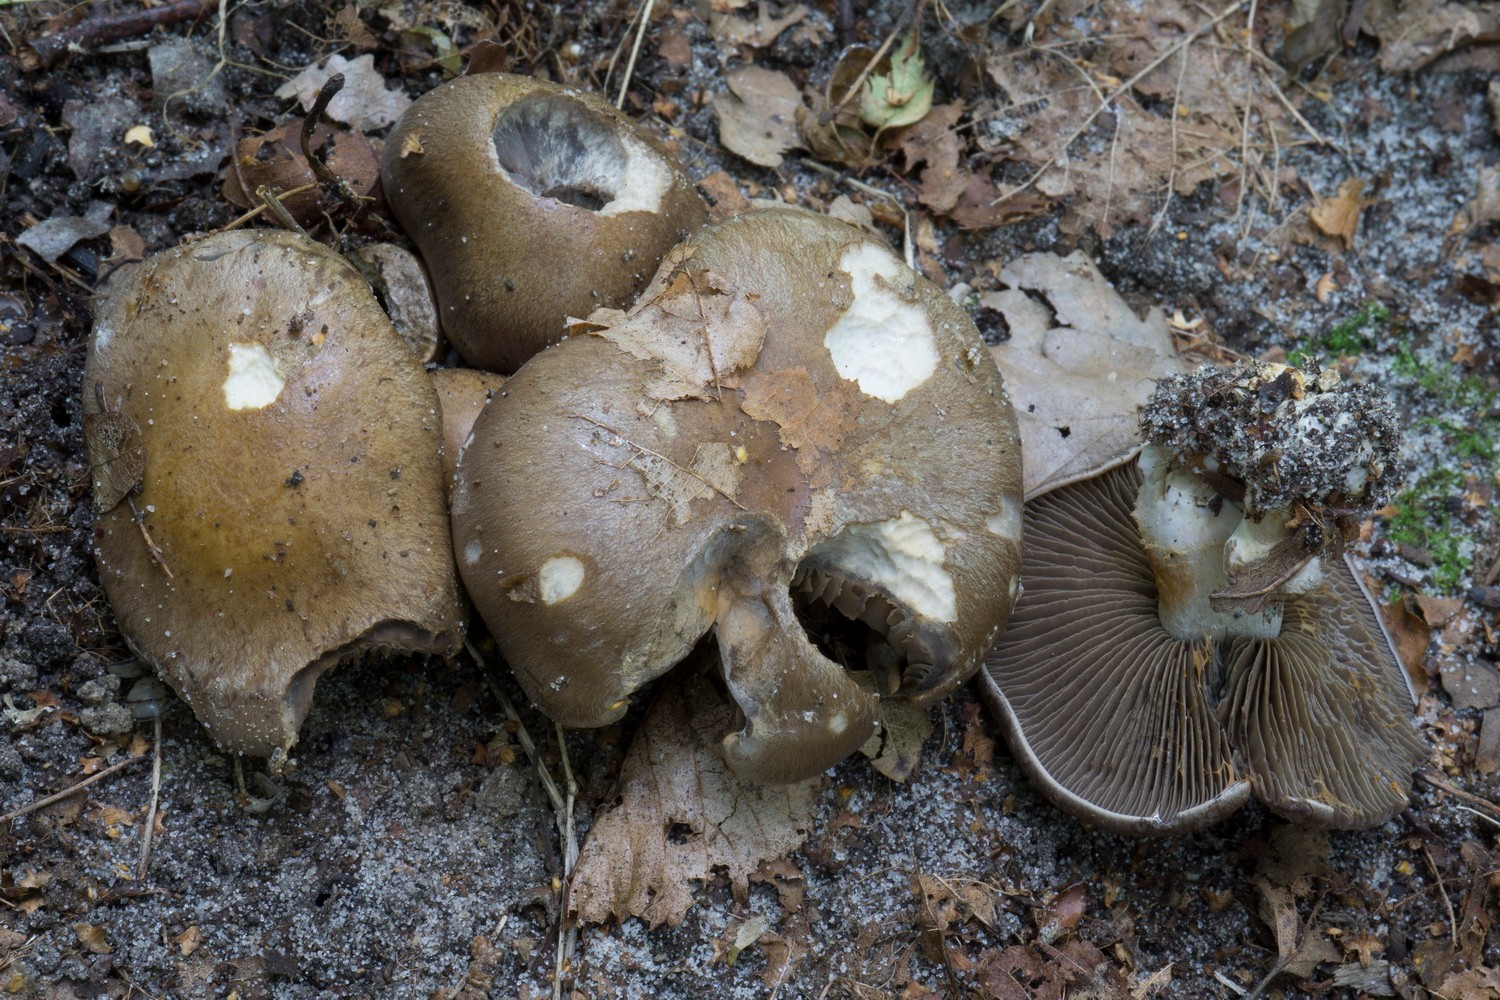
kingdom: Fungi
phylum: Basidiomycota
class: Agaricomycetes
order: Agaricales
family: Cortinariaceae
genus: Cortinarius
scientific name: Cortinarius
